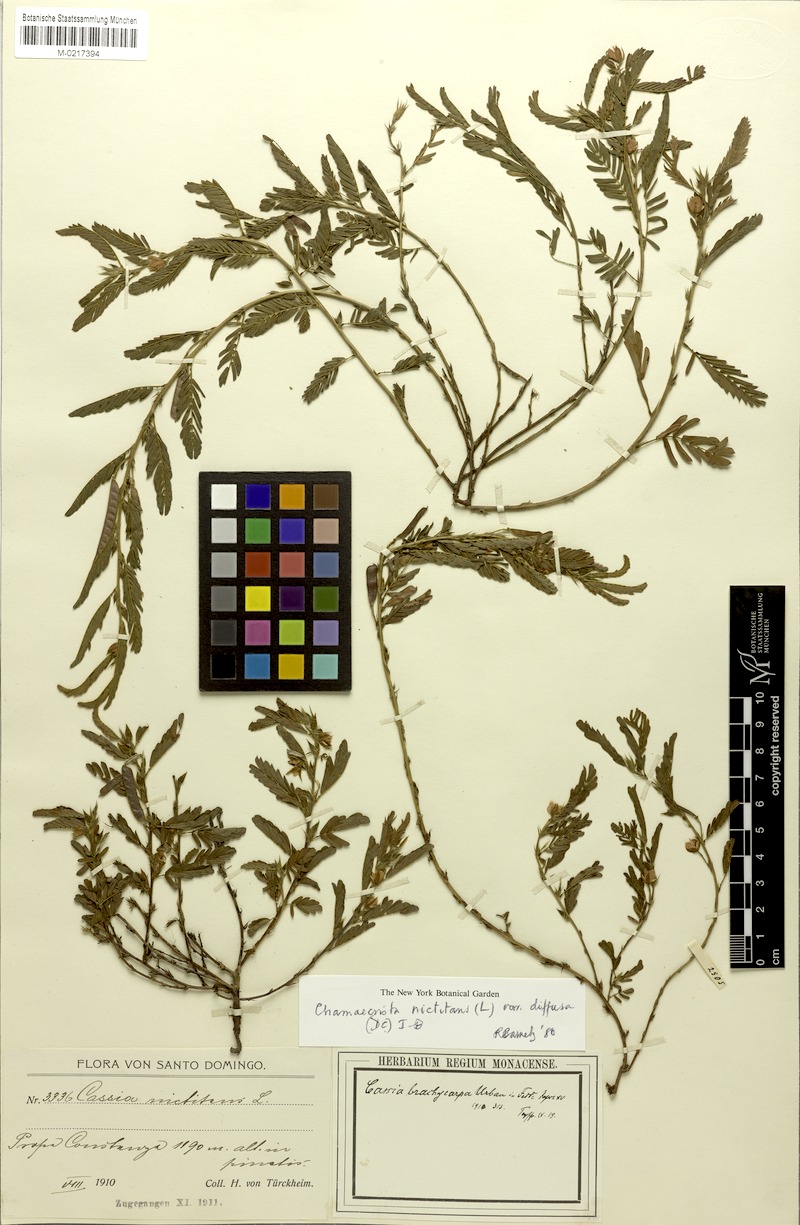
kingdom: Plantae
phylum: Tracheophyta
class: Magnoliopsida
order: Fabales
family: Fabaceae
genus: Chamaecrista
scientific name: Chamaecrista nictitans
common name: Sensitive cassia
